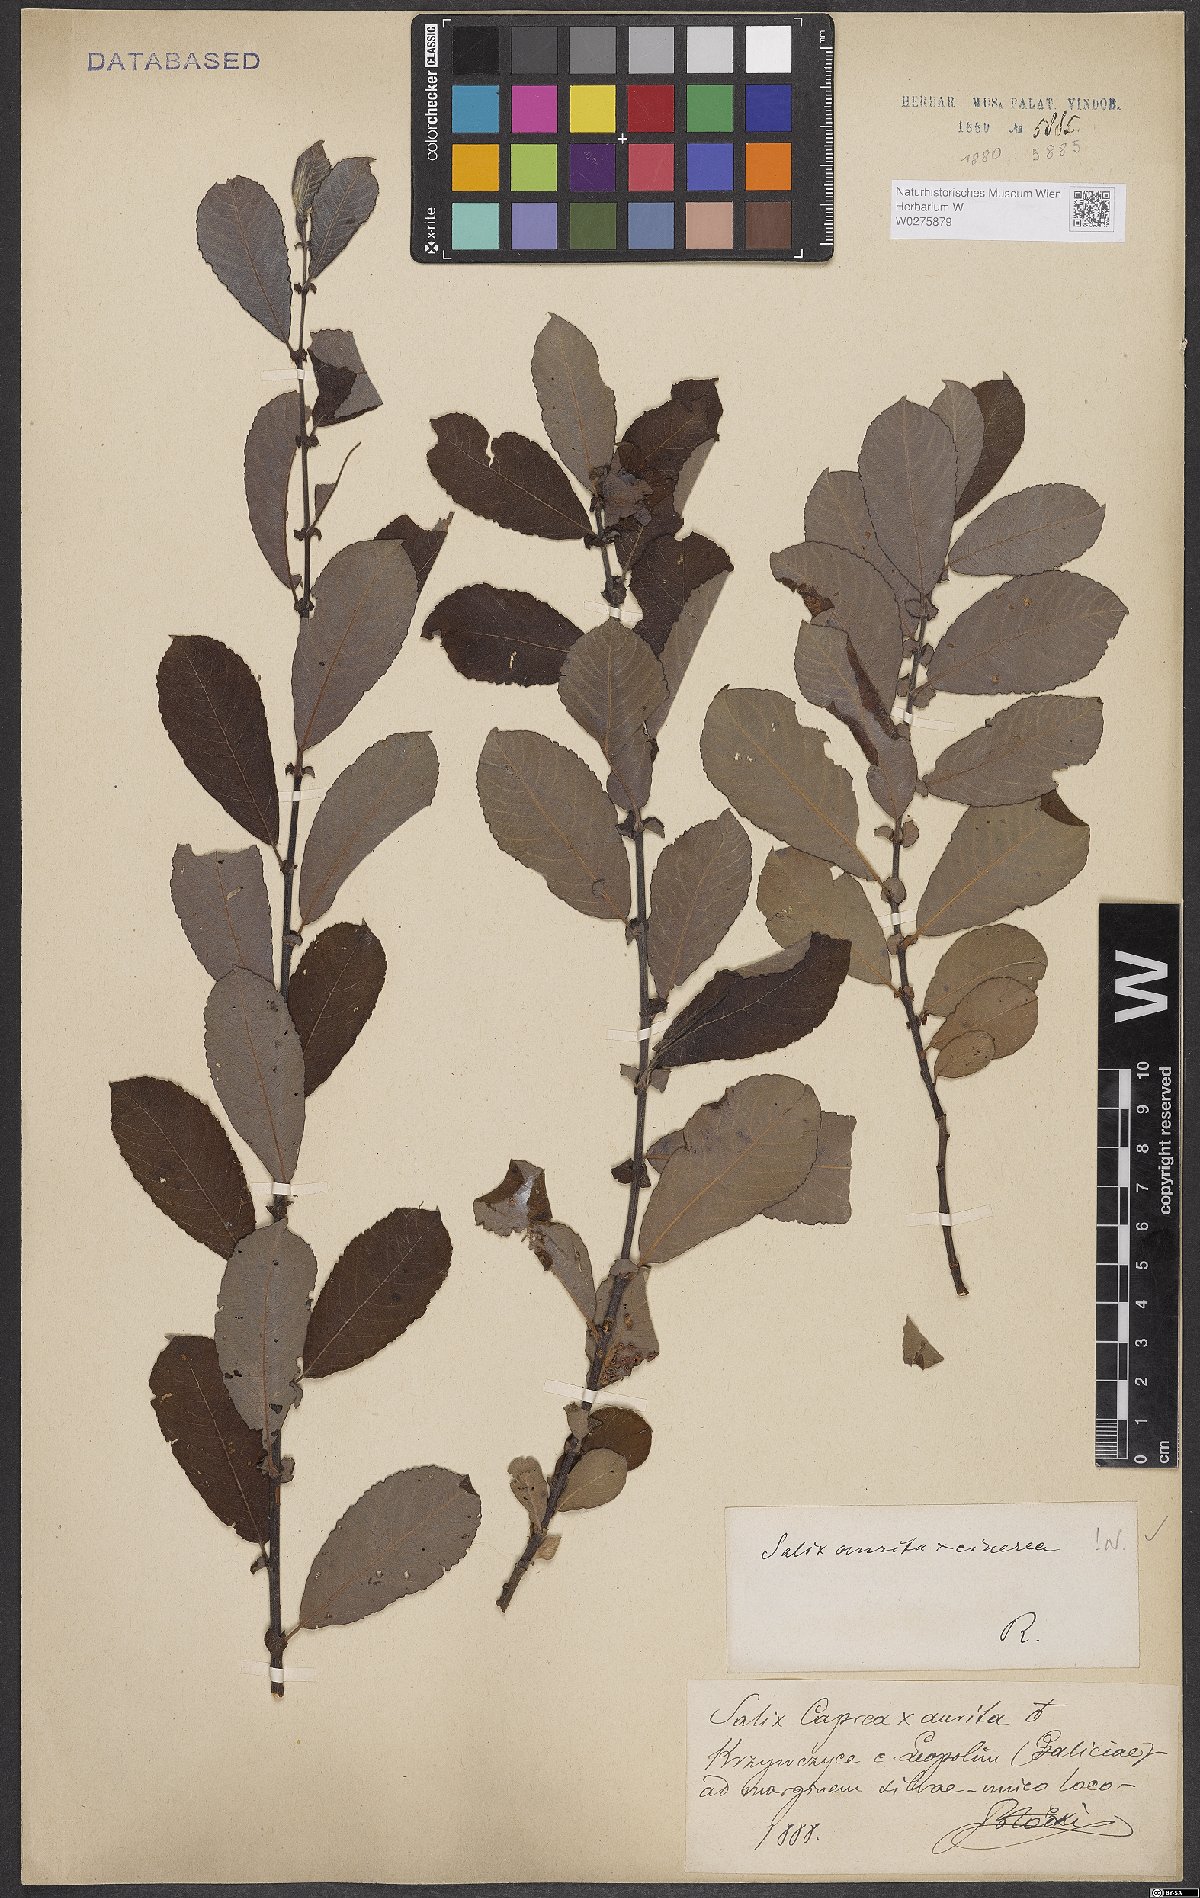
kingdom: Plantae
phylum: Tracheophyta
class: Magnoliopsida
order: Malpighiales
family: Salicaceae
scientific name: Salicaceae
